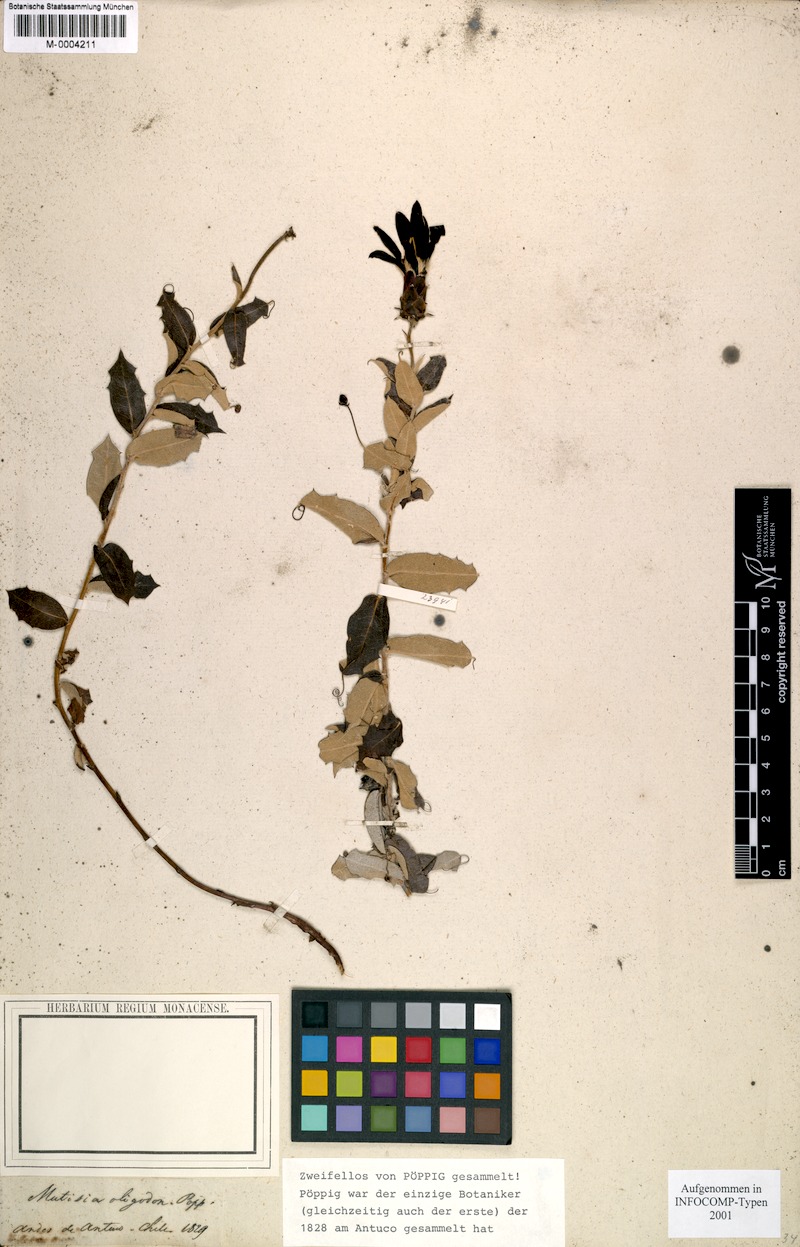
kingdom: Plantae
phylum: Tracheophyta
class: Magnoliopsida
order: Asterales
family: Asteraceae
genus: Mutisia
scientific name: Mutisia oligodon
